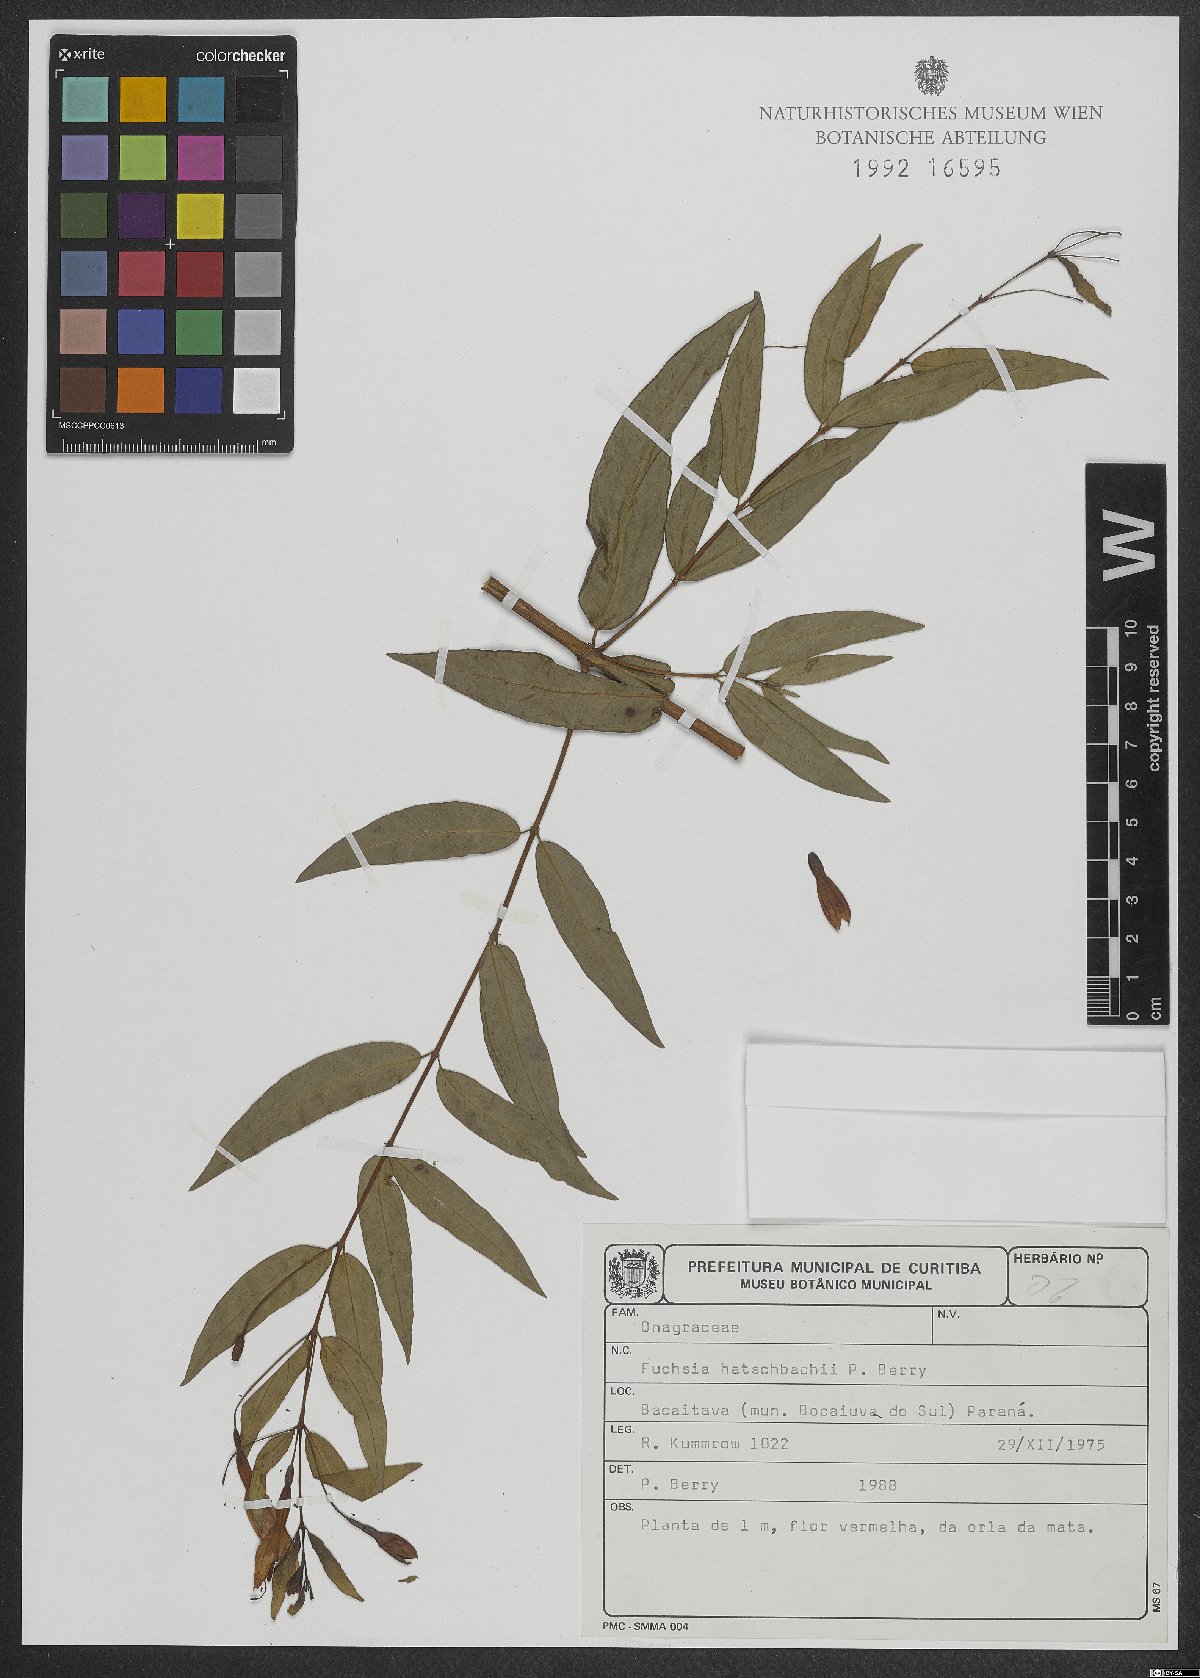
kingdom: Plantae
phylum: Tracheophyta
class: Magnoliopsida
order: Myrtales
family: Onagraceae
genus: Fuchsia
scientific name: Fuchsia hatschbachii
